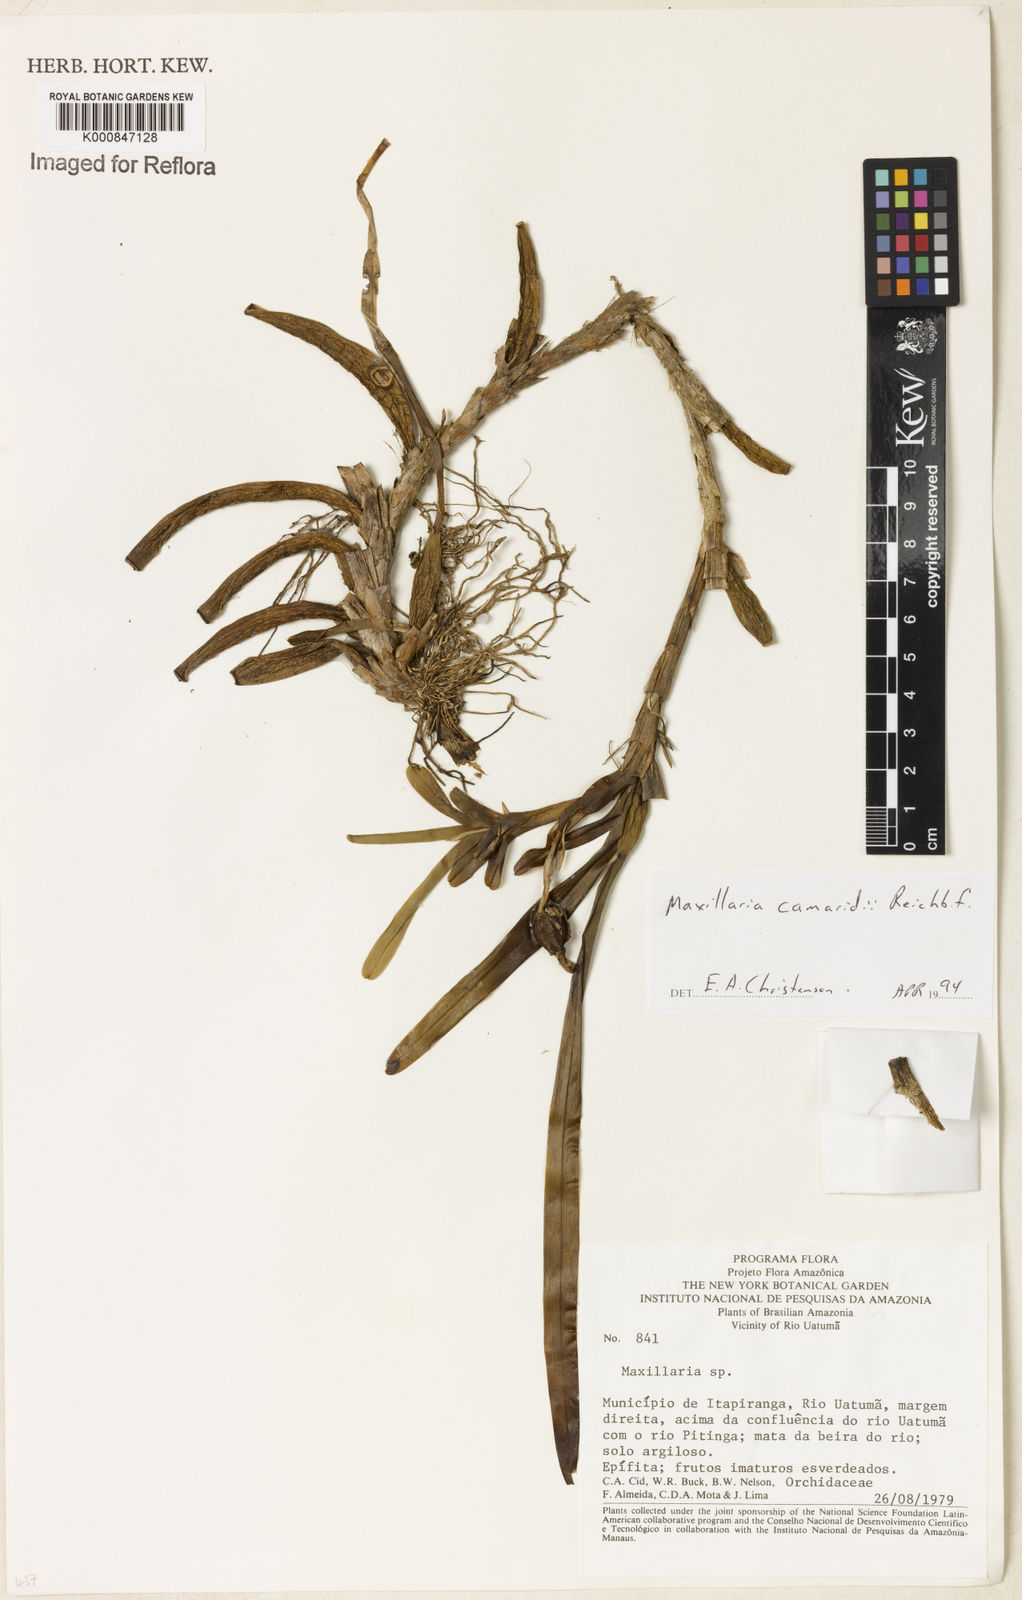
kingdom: Plantae
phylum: Tracheophyta
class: Liliopsida
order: Asparagales
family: Orchidaceae
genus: Maxillaria
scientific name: Maxillaria lutescens
